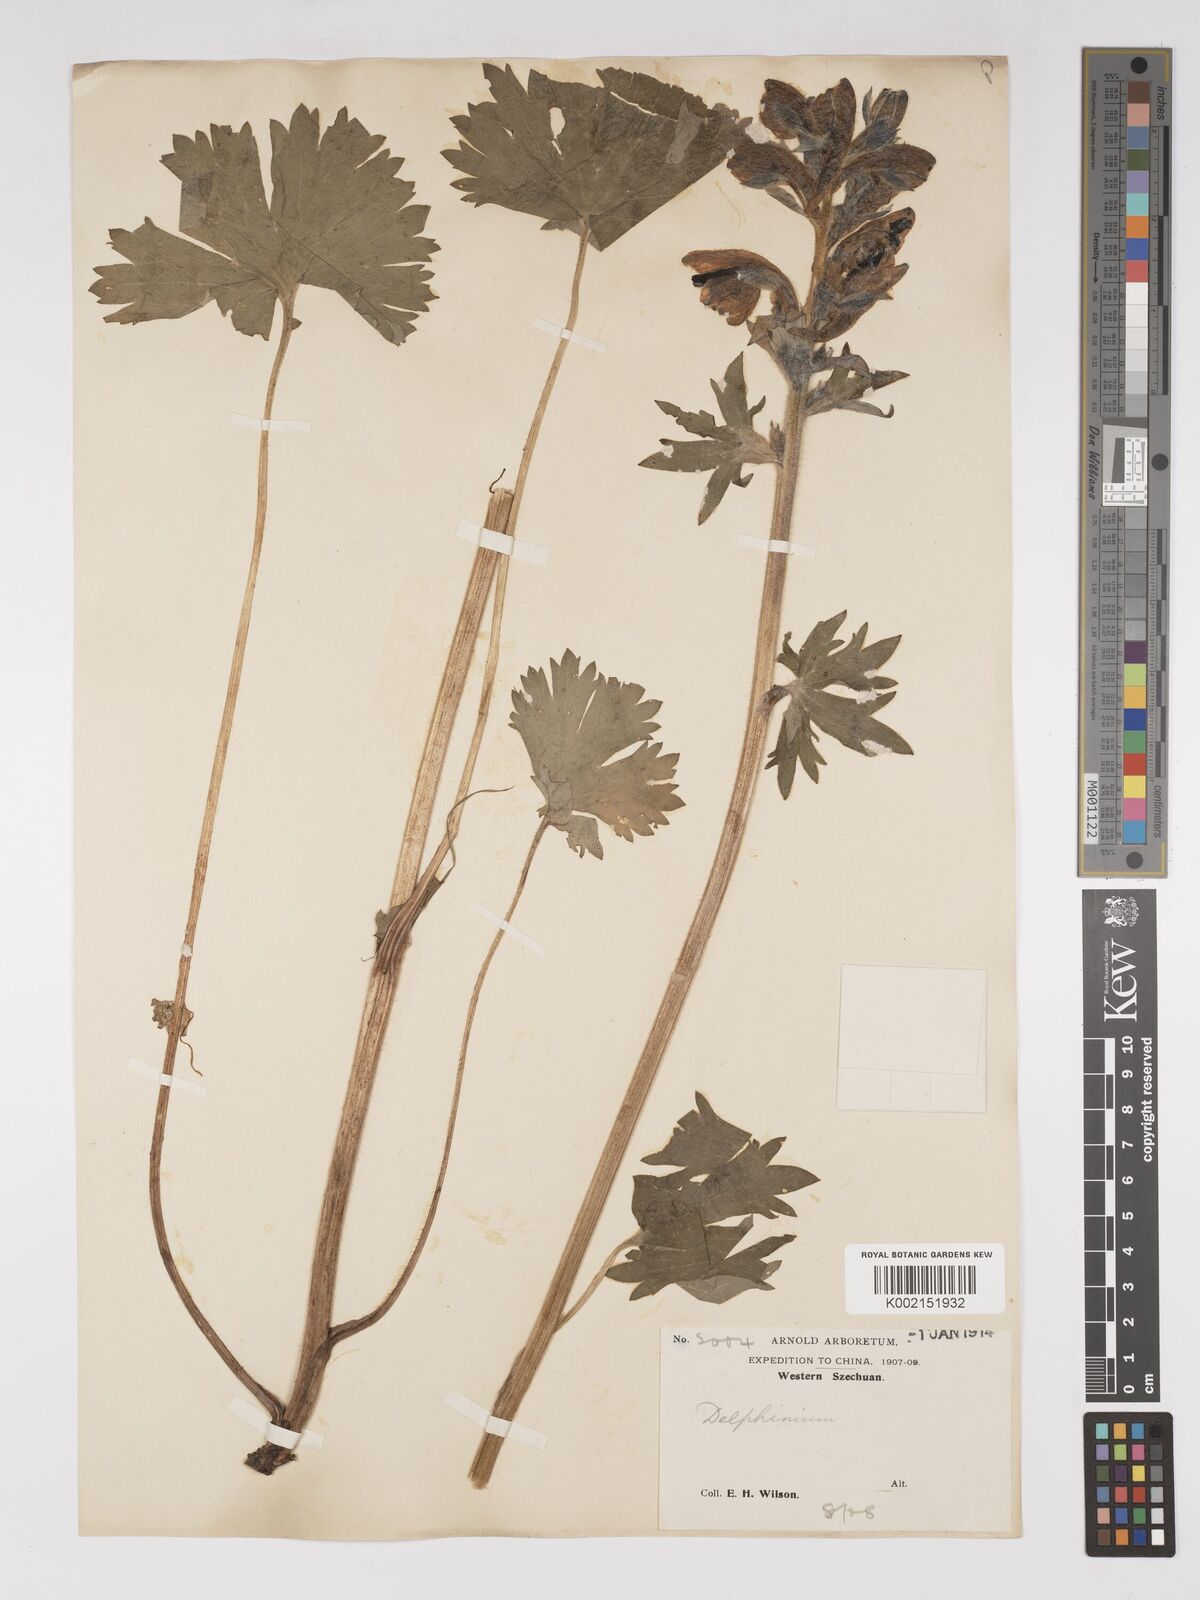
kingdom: Plantae
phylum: Tracheophyta
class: Magnoliopsida
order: Ranunculales
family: Ranunculaceae
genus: Delphinium
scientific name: Delphinium trichophorum
